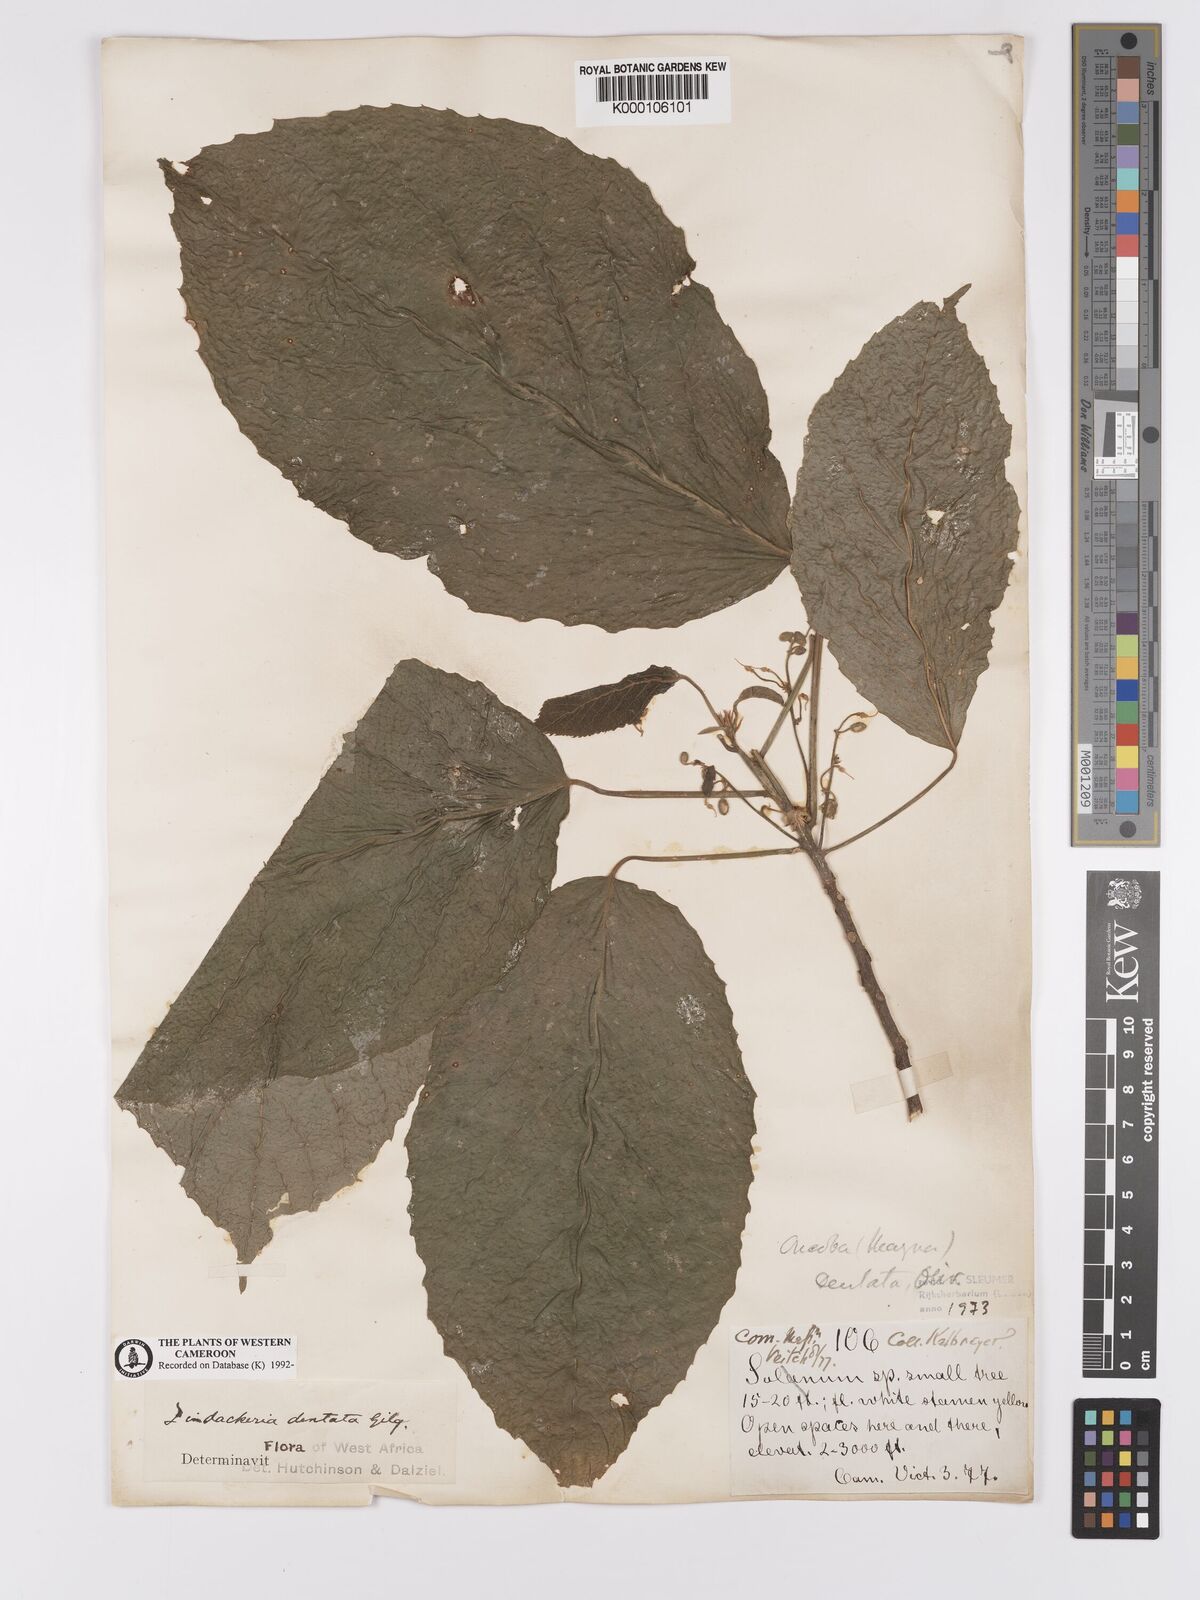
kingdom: Plantae
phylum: Tracheophyta
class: Magnoliopsida
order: Malpighiales
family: Achariaceae
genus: Lindackeria
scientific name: Lindackeria dentata
